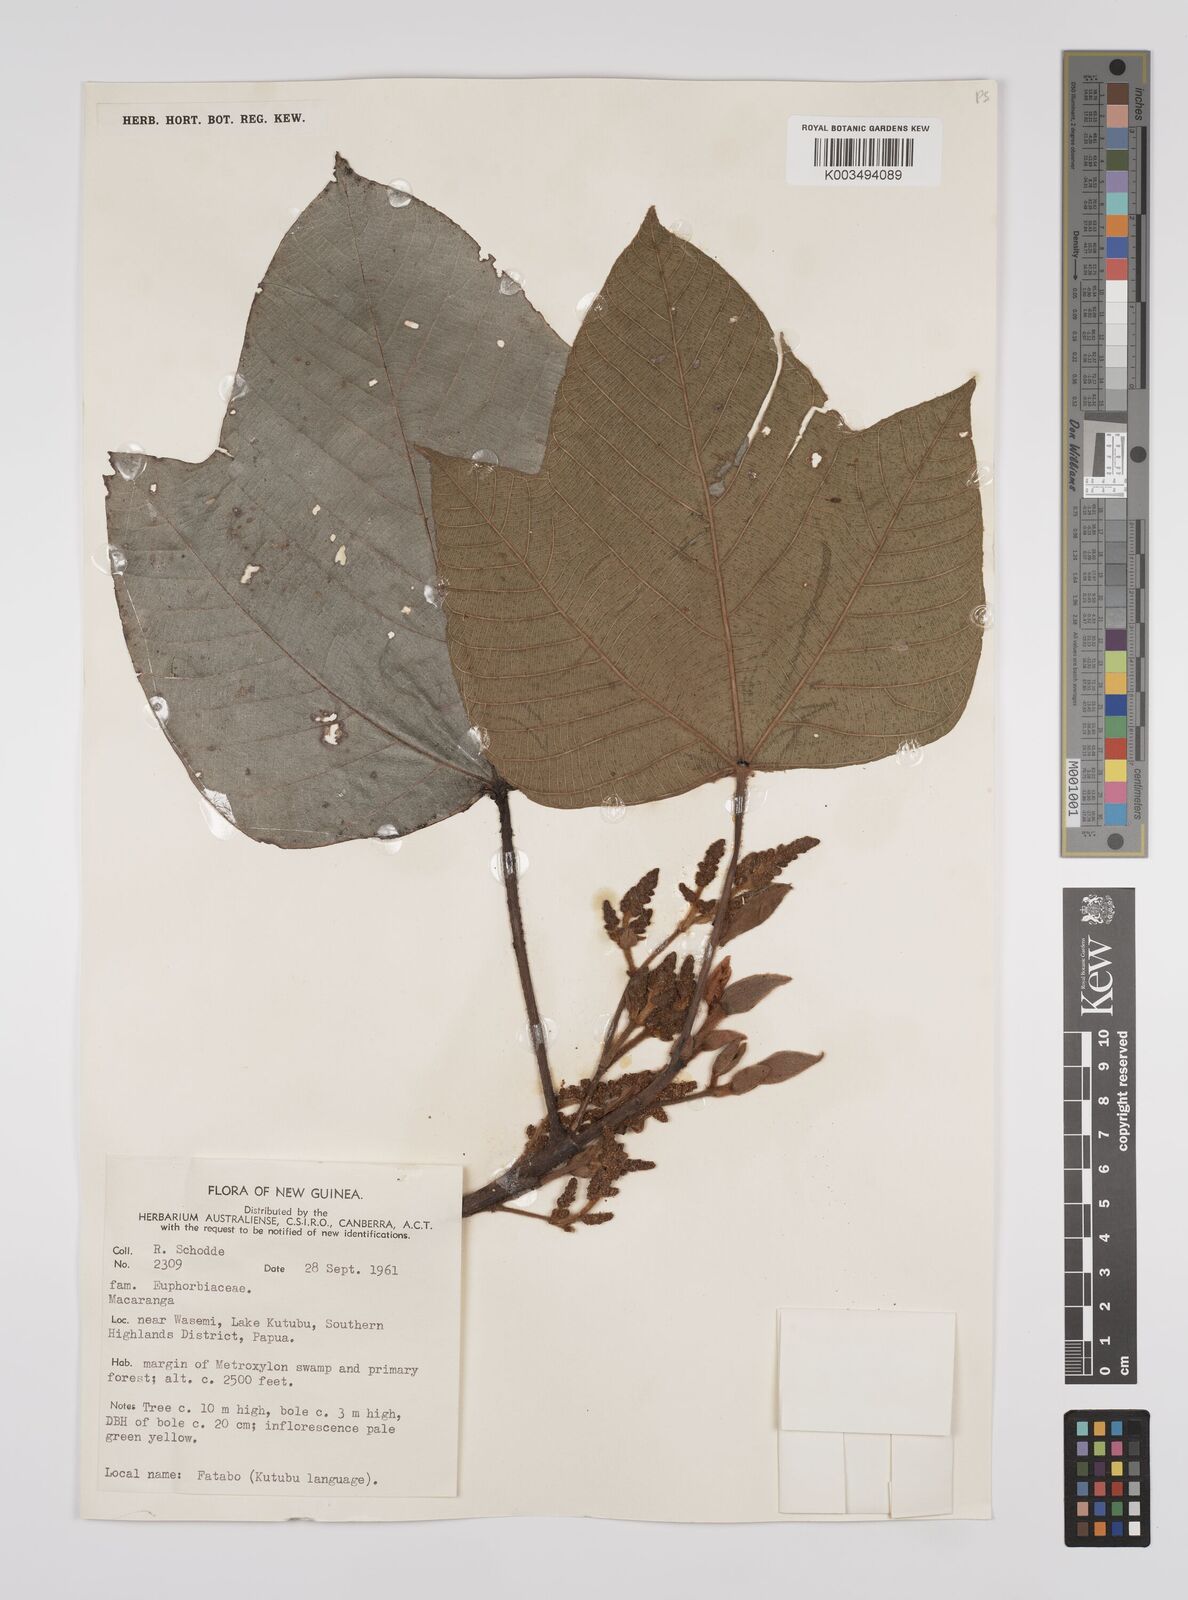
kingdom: Plantae
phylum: Tracheophyta
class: Magnoliopsida
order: Malpighiales
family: Euphorbiaceae
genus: Macaranga
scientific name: Macaranga aleuritoides
